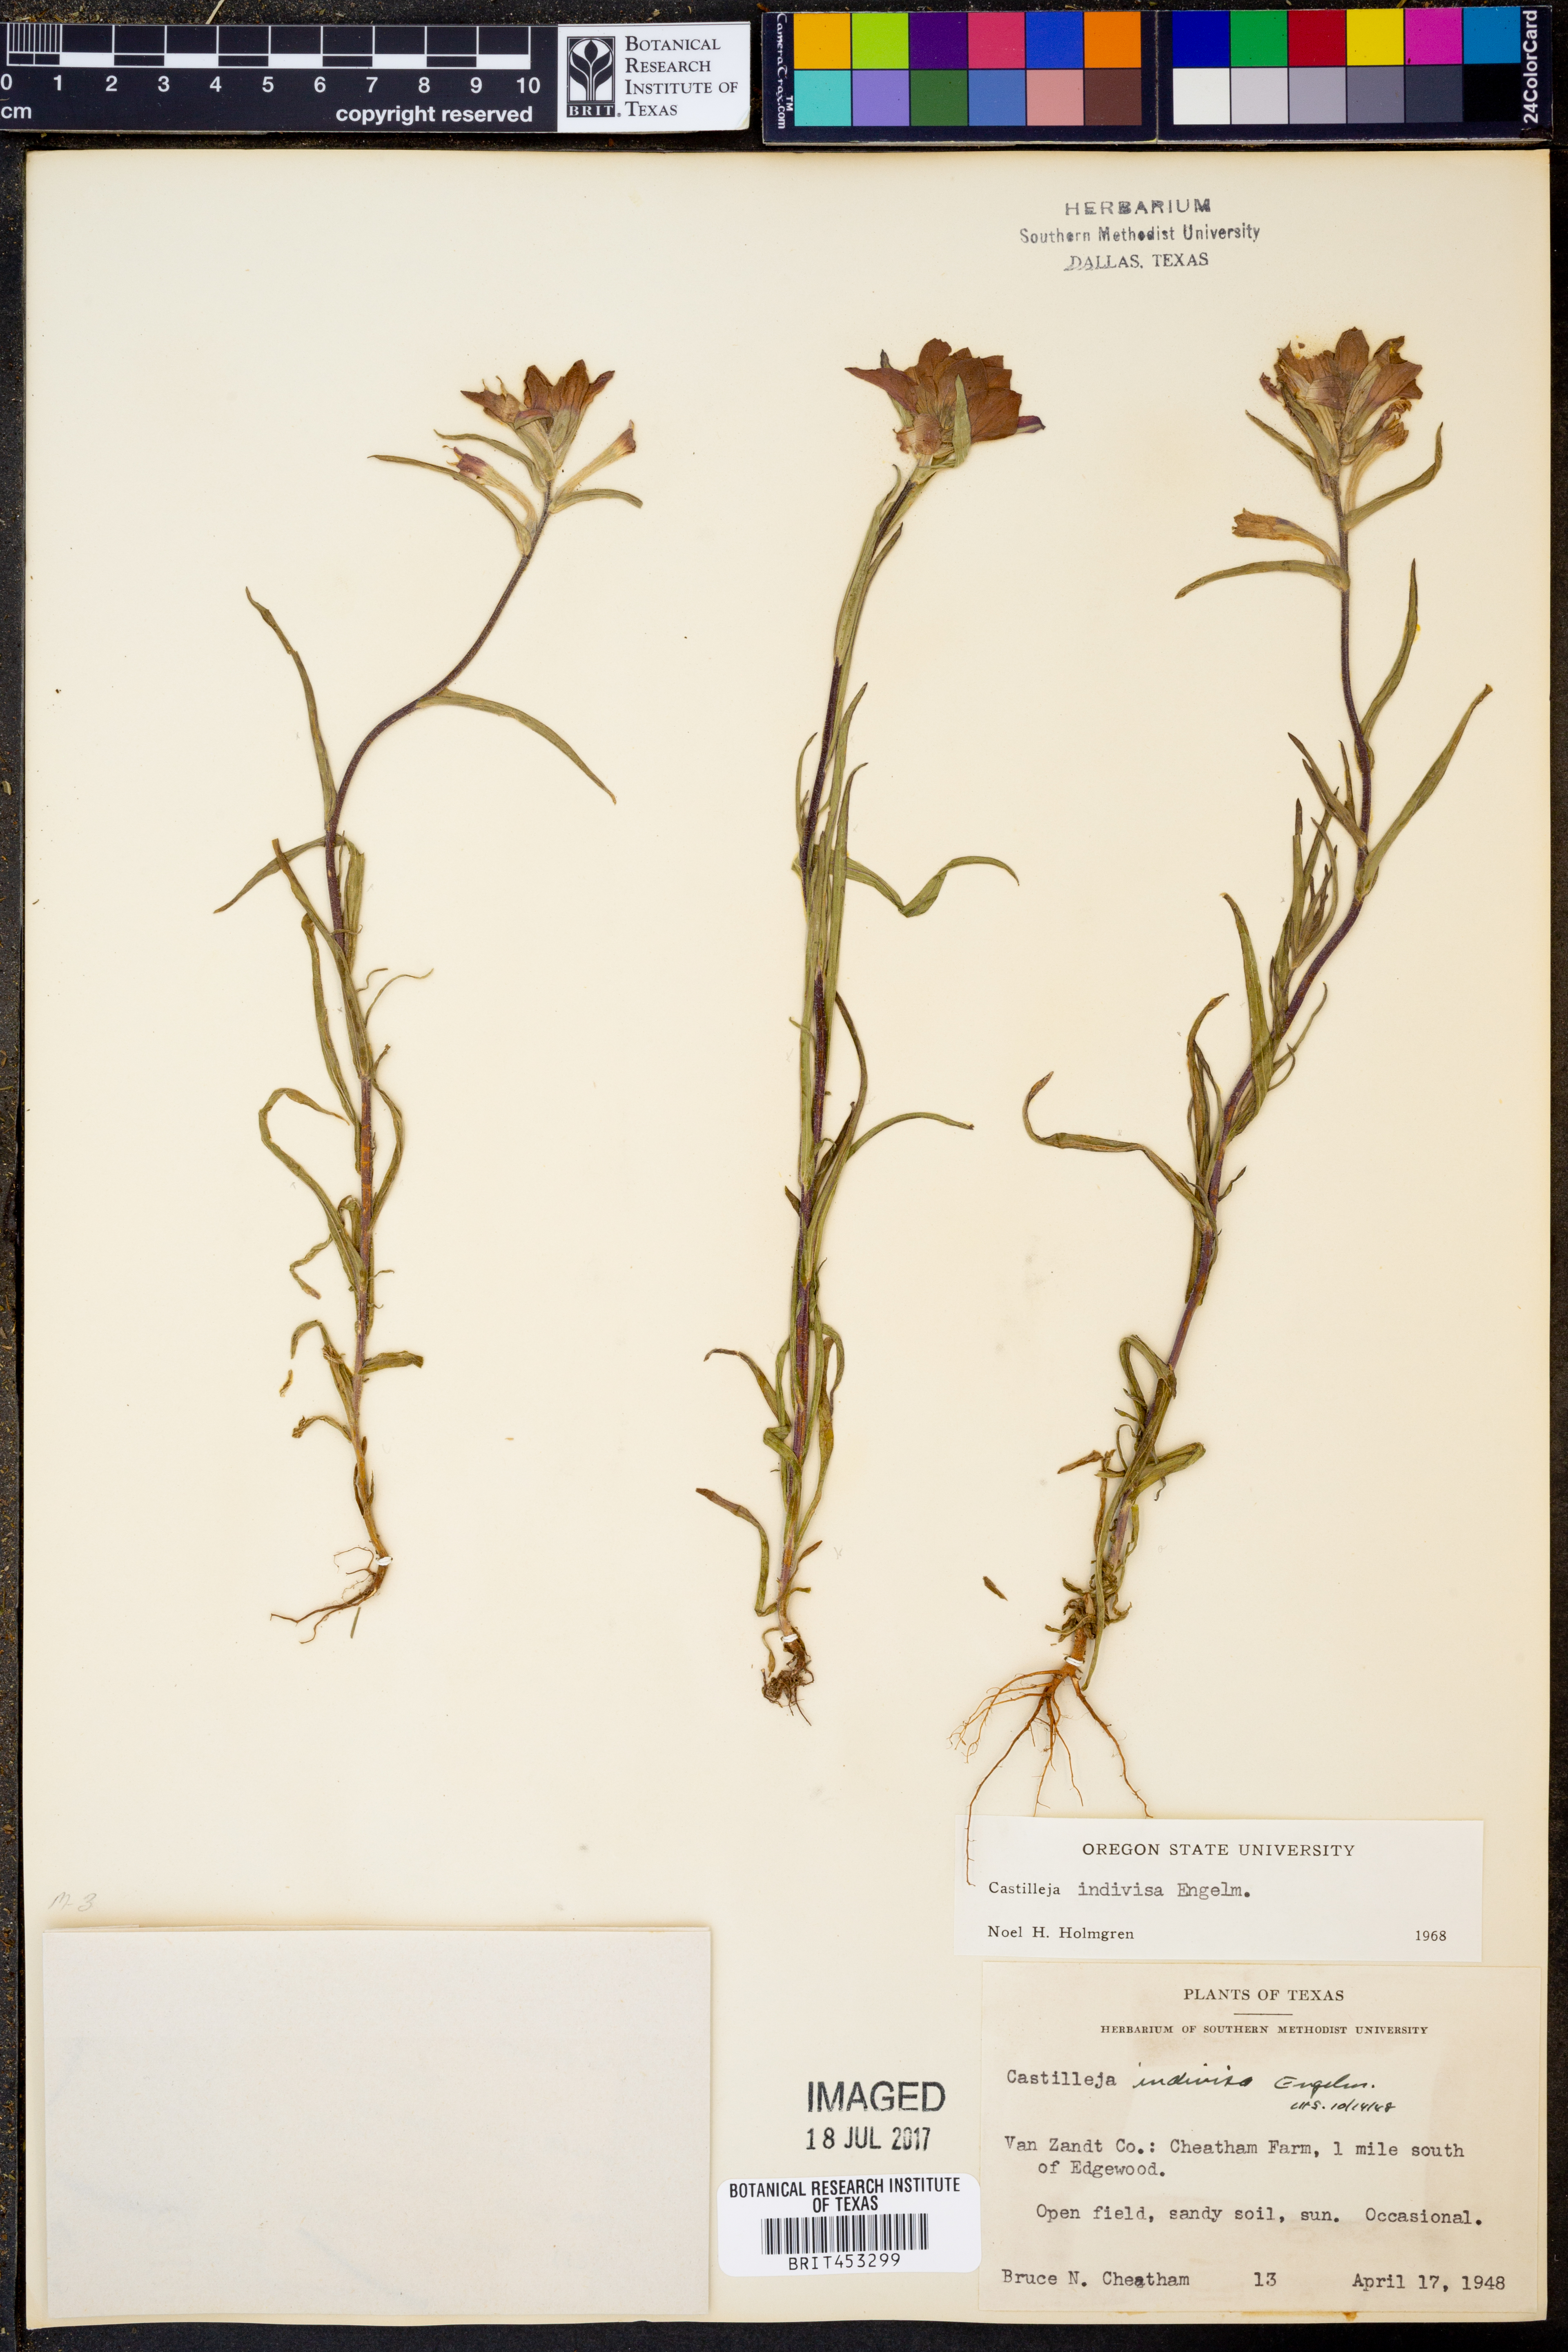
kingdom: Plantae
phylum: Tracheophyta
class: Magnoliopsida
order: Lamiales
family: Orobanchaceae
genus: Castilleja
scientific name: Castilleja indivisa
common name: Texas paintbrush
